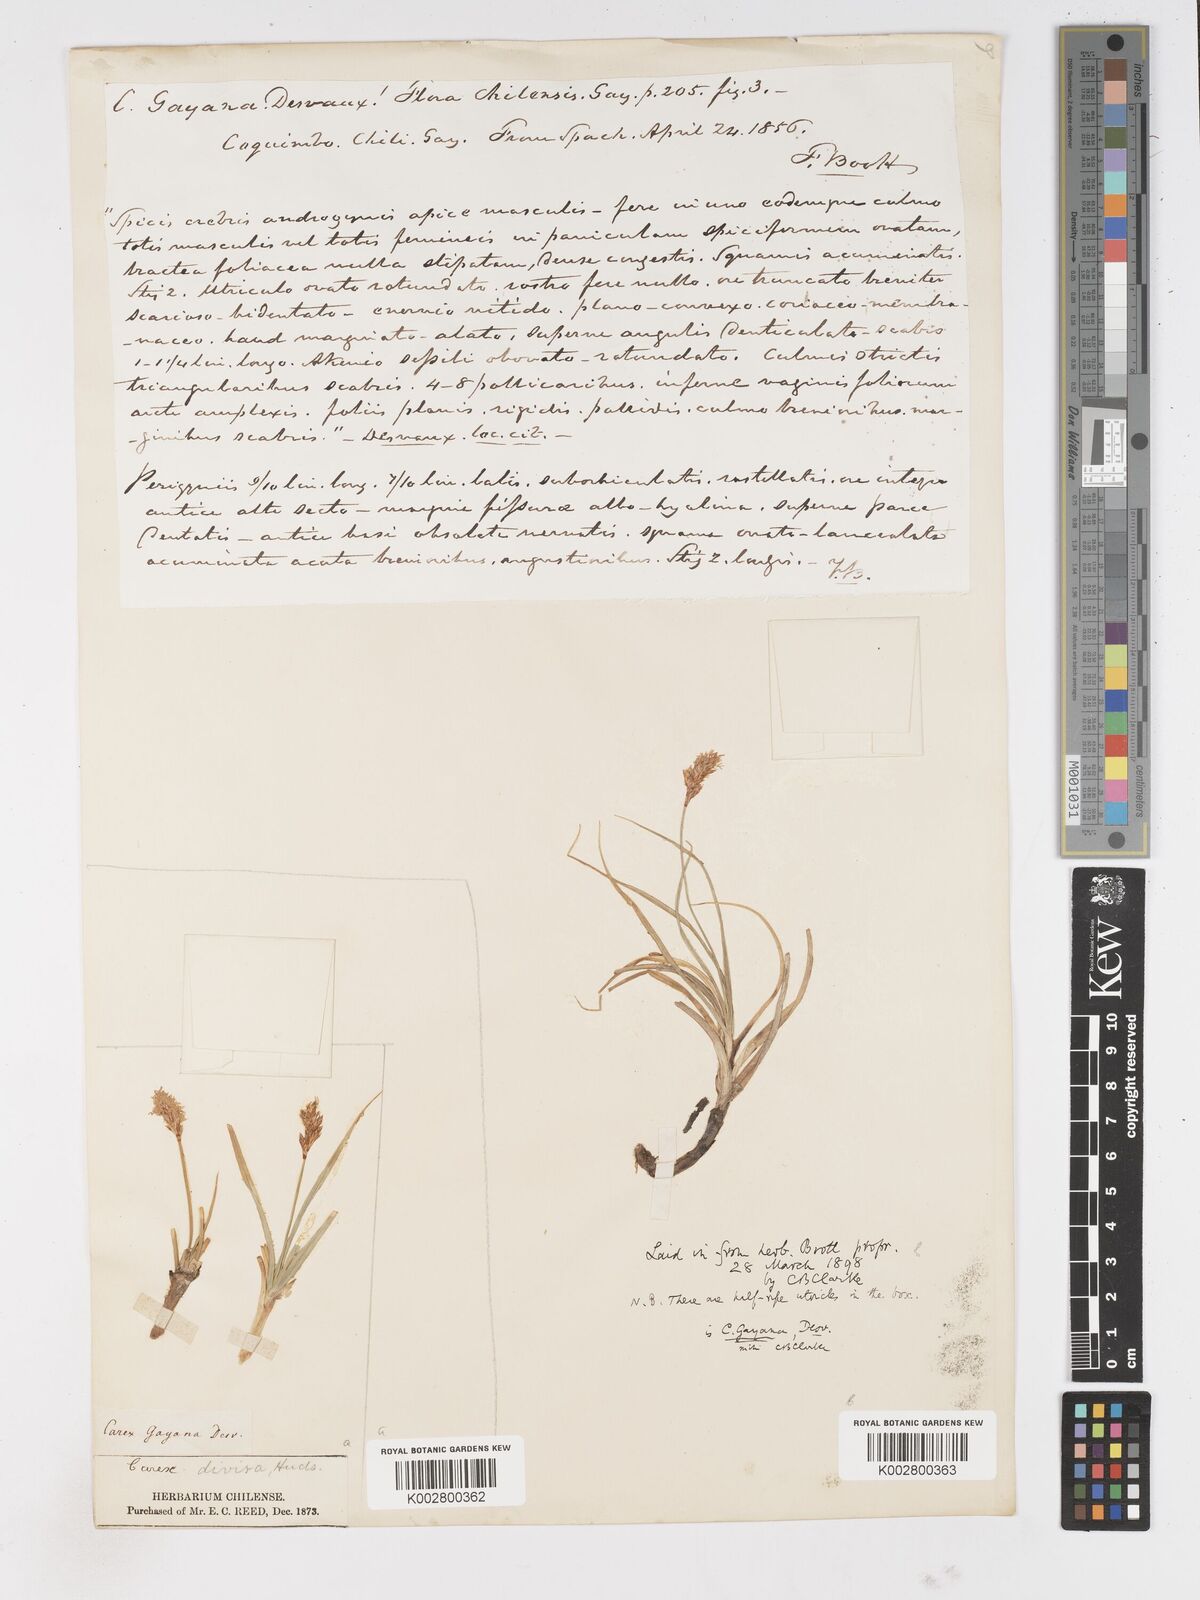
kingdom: Plantae
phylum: Tracheophyta
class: Liliopsida
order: Poales
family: Cyperaceae
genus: Carex
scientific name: Carex gayana
